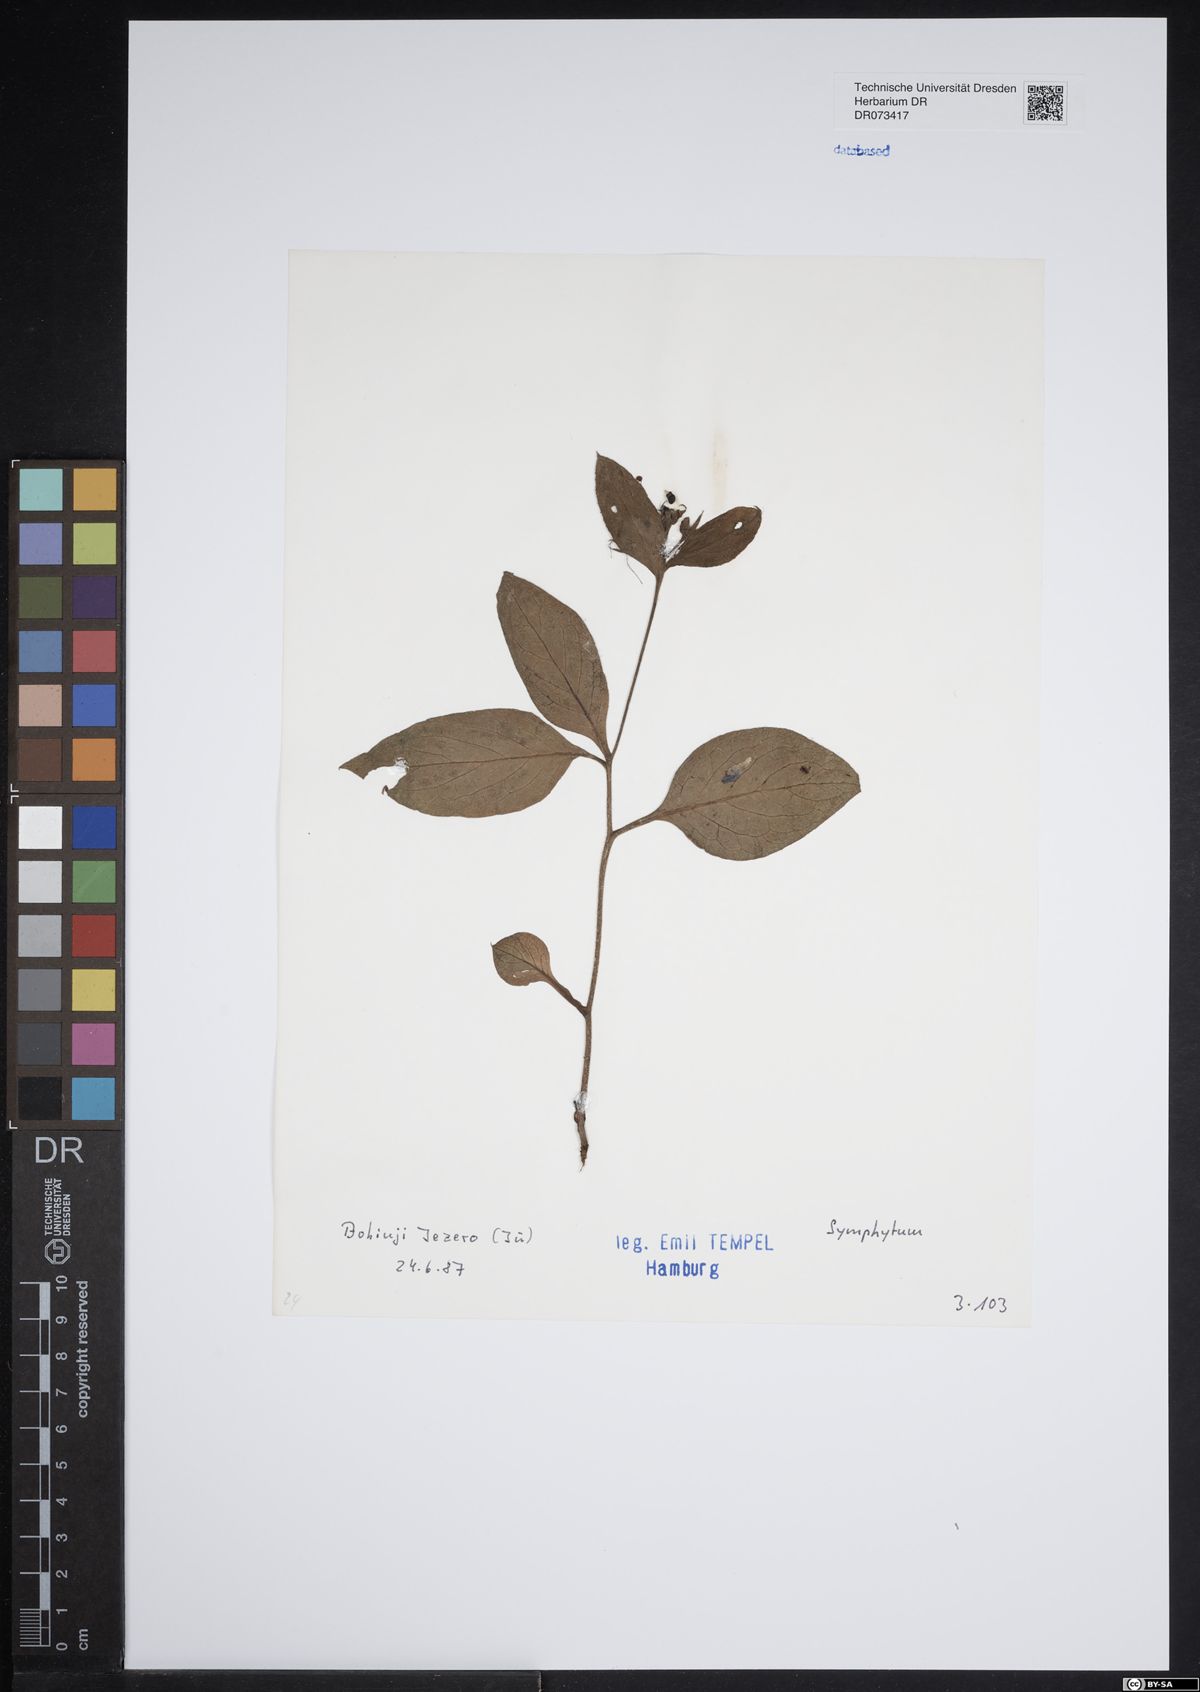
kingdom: Plantae
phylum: Tracheophyta
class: Magnoliopsida
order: Boraginales
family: Boraginaceae
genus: Symphytum
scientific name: Symphytum
